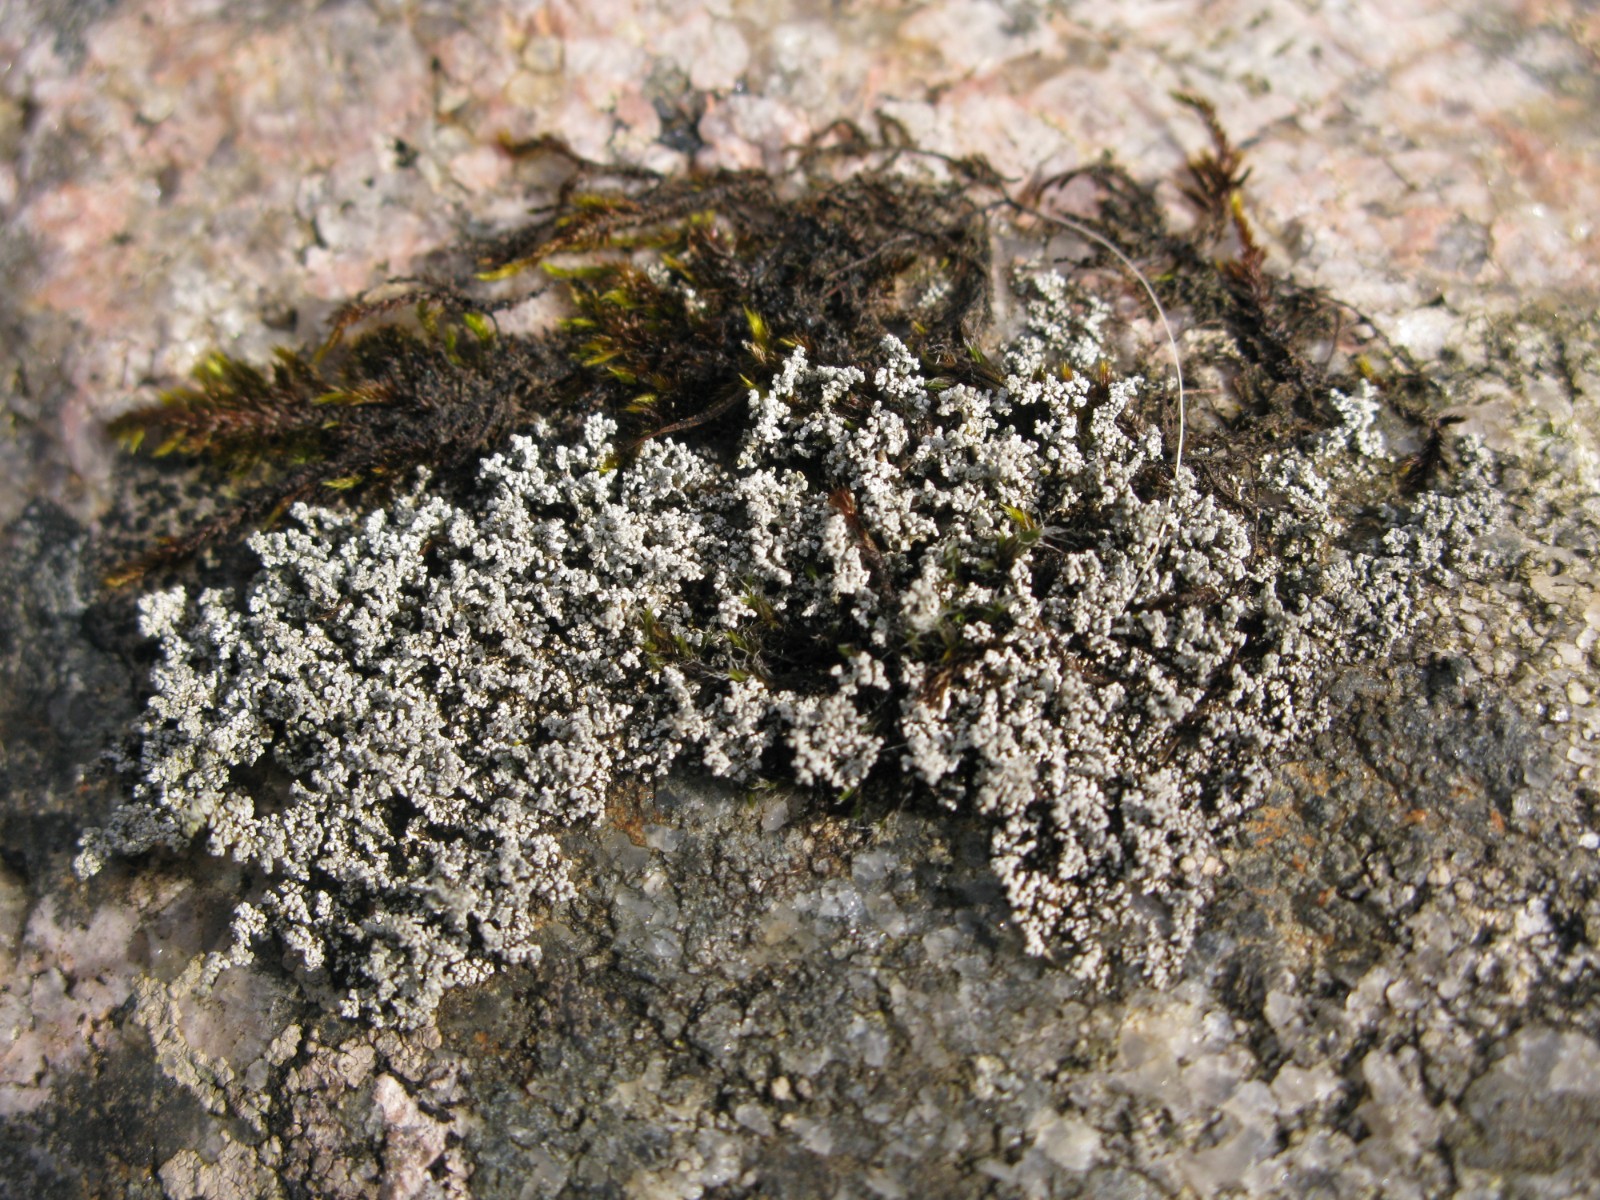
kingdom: Fungi
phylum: Ascomycota
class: Lecanoromycetes
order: Lecanorales
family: Stereocaulaceae
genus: Stereocaulon
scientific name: Stereocaulon vesuvianum
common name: skjold-korallav
